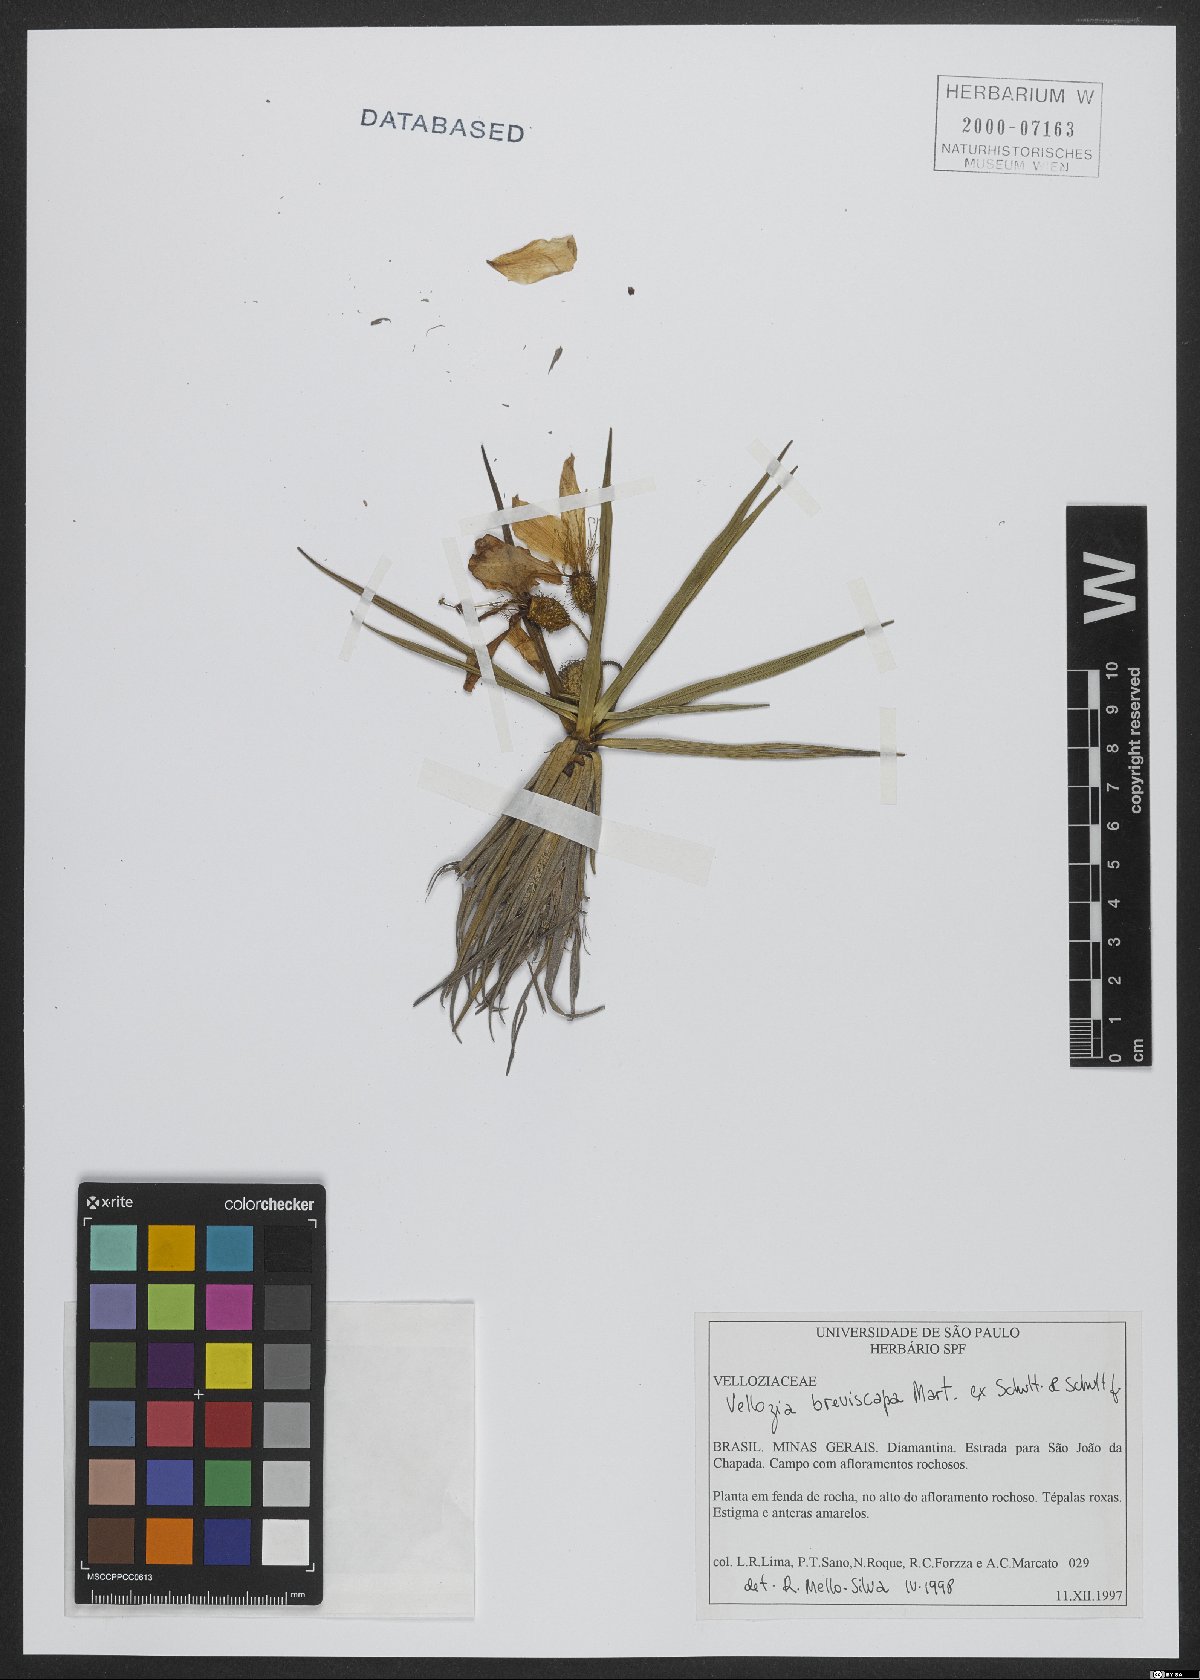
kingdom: Plantae
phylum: Tracheophyta
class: Liliopsida
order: Pandanales
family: Velloziaceae
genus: Vellozia
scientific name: Vellozia breviscapa
